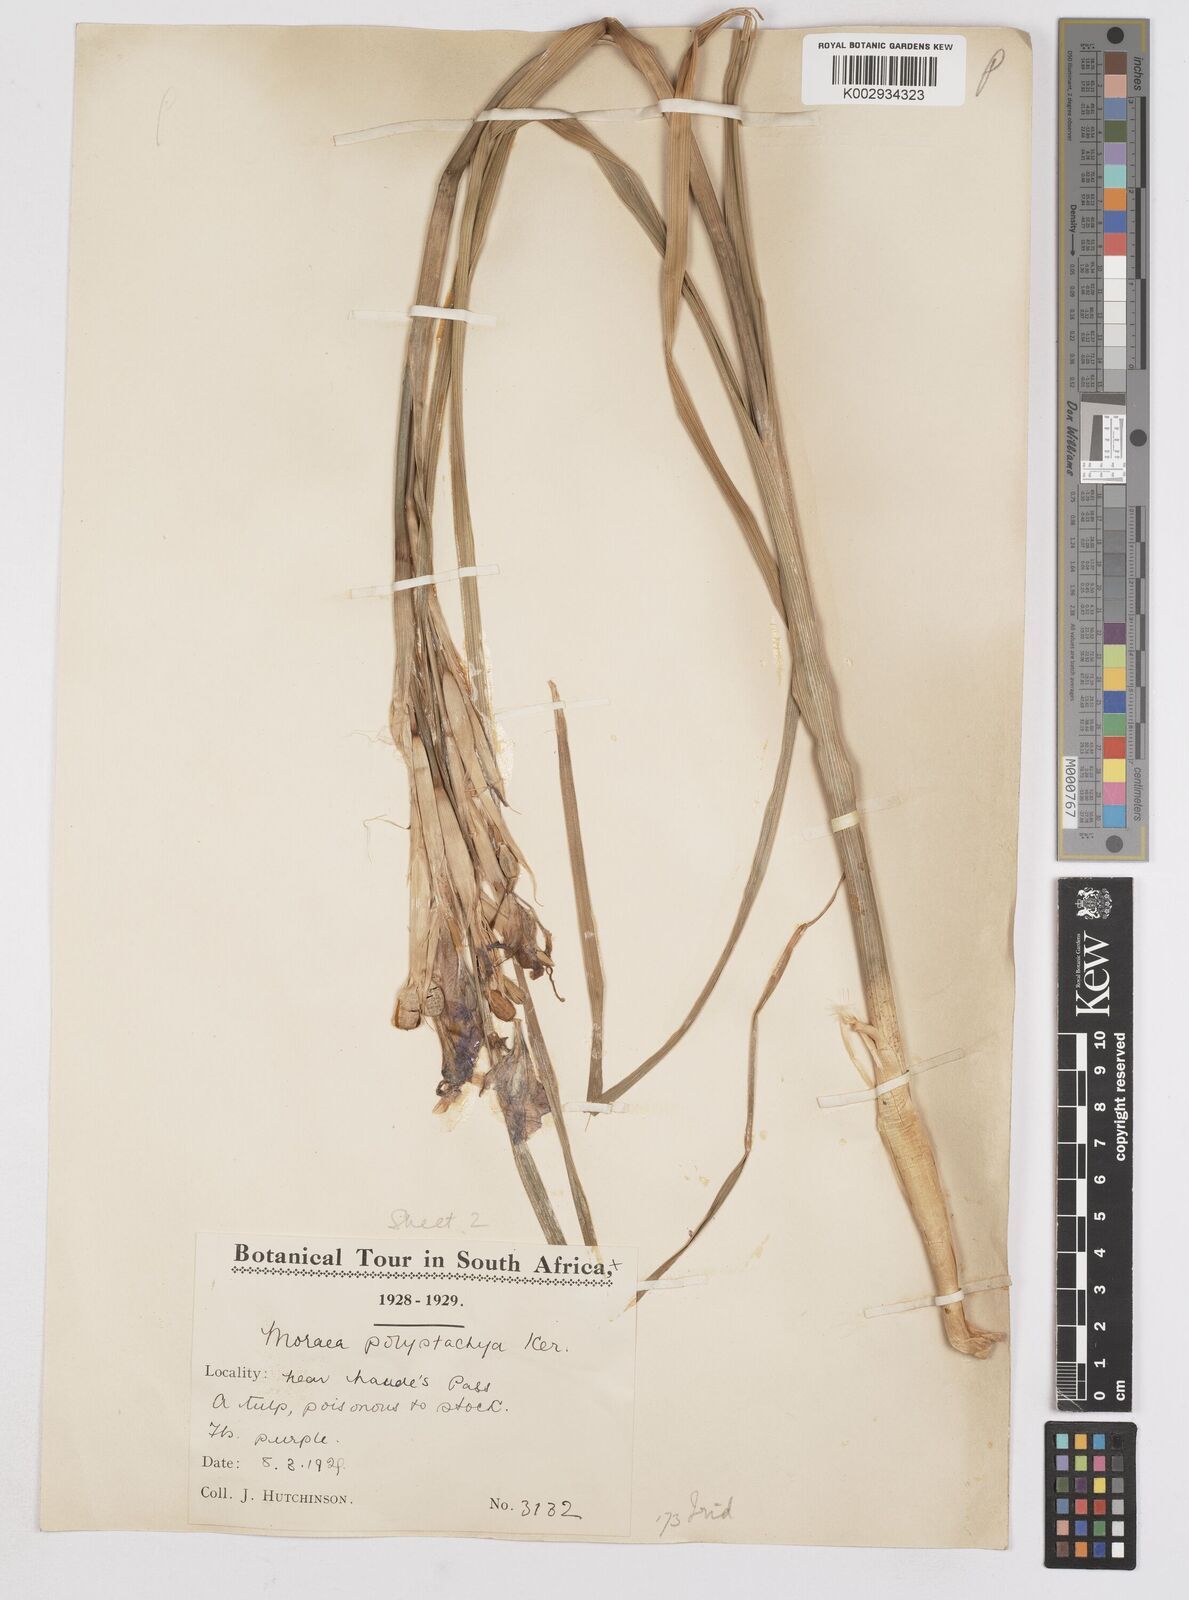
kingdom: Plantae
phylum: Tracheophyta
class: Liliopsida
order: Asparagales
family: Iridaceae
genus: Moraea
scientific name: Moraea polystachya
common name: Blue-tulip
